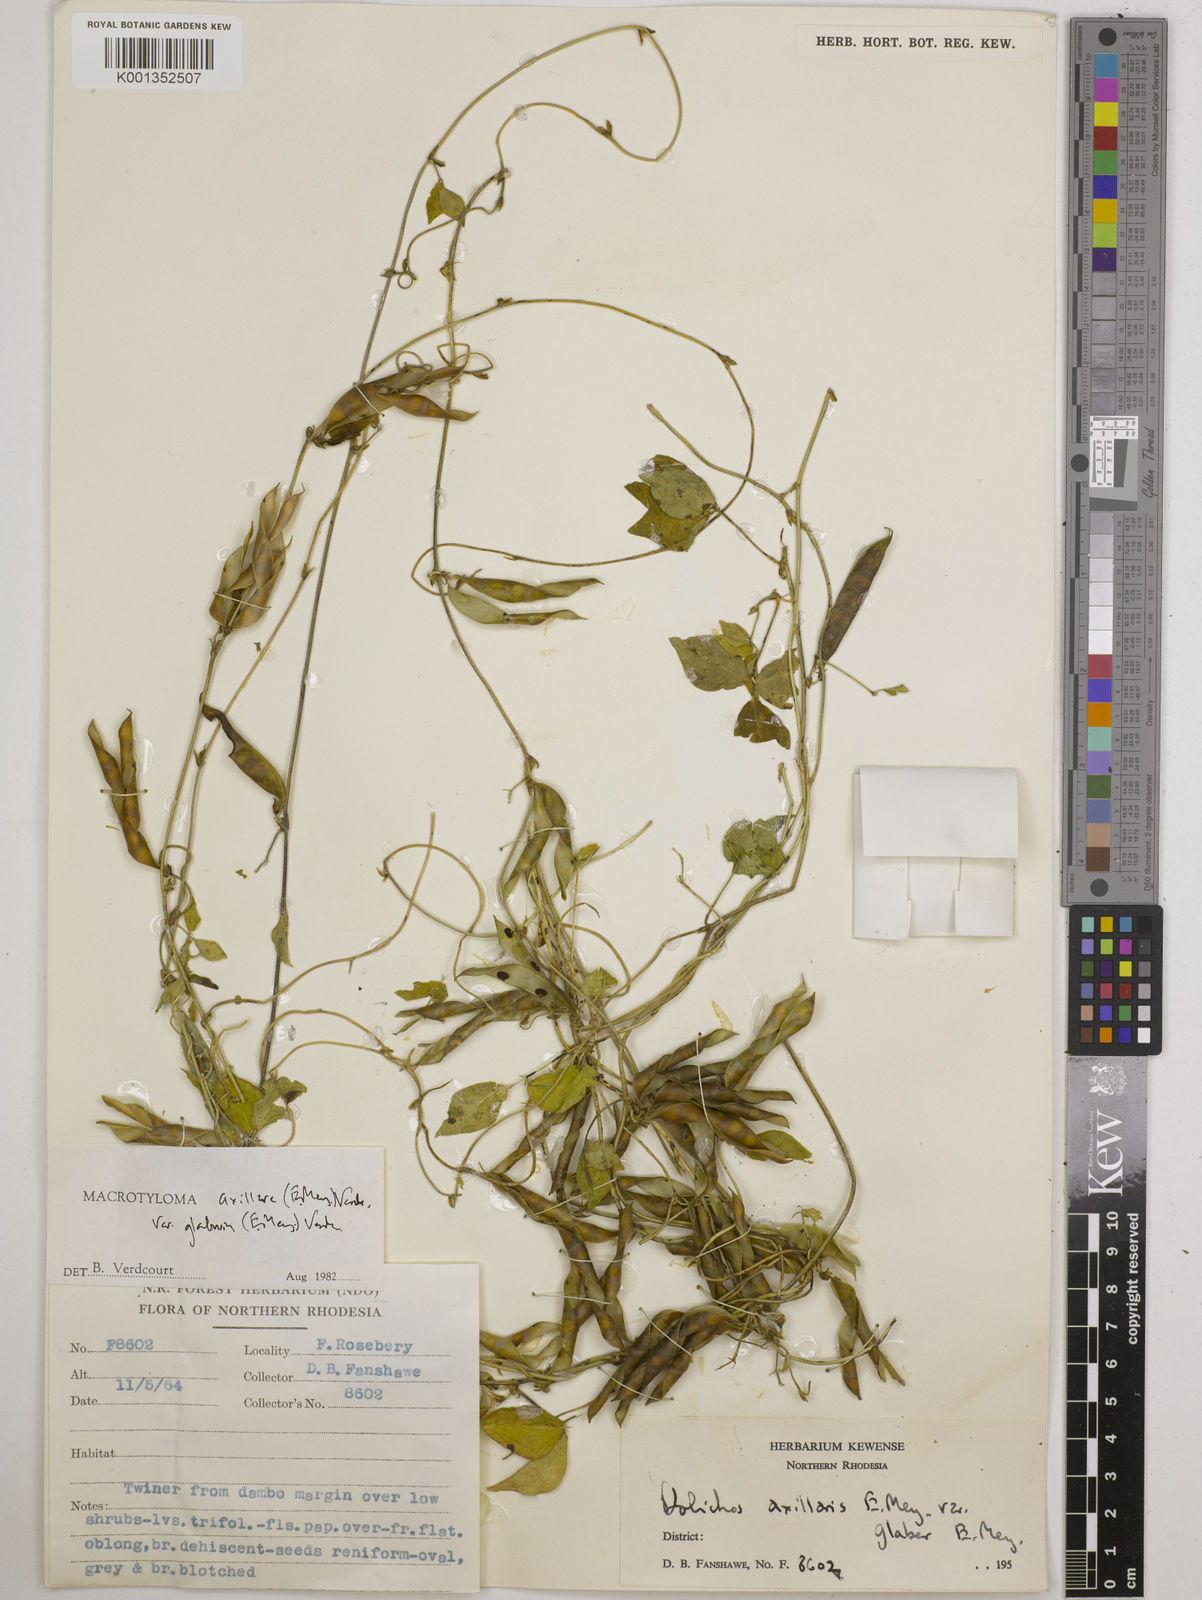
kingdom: Plantae
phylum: Tracheophyta
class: Magnoliopsida
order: Fabales
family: Fabaceae
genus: Macrotyloma
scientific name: Macrotyloma
